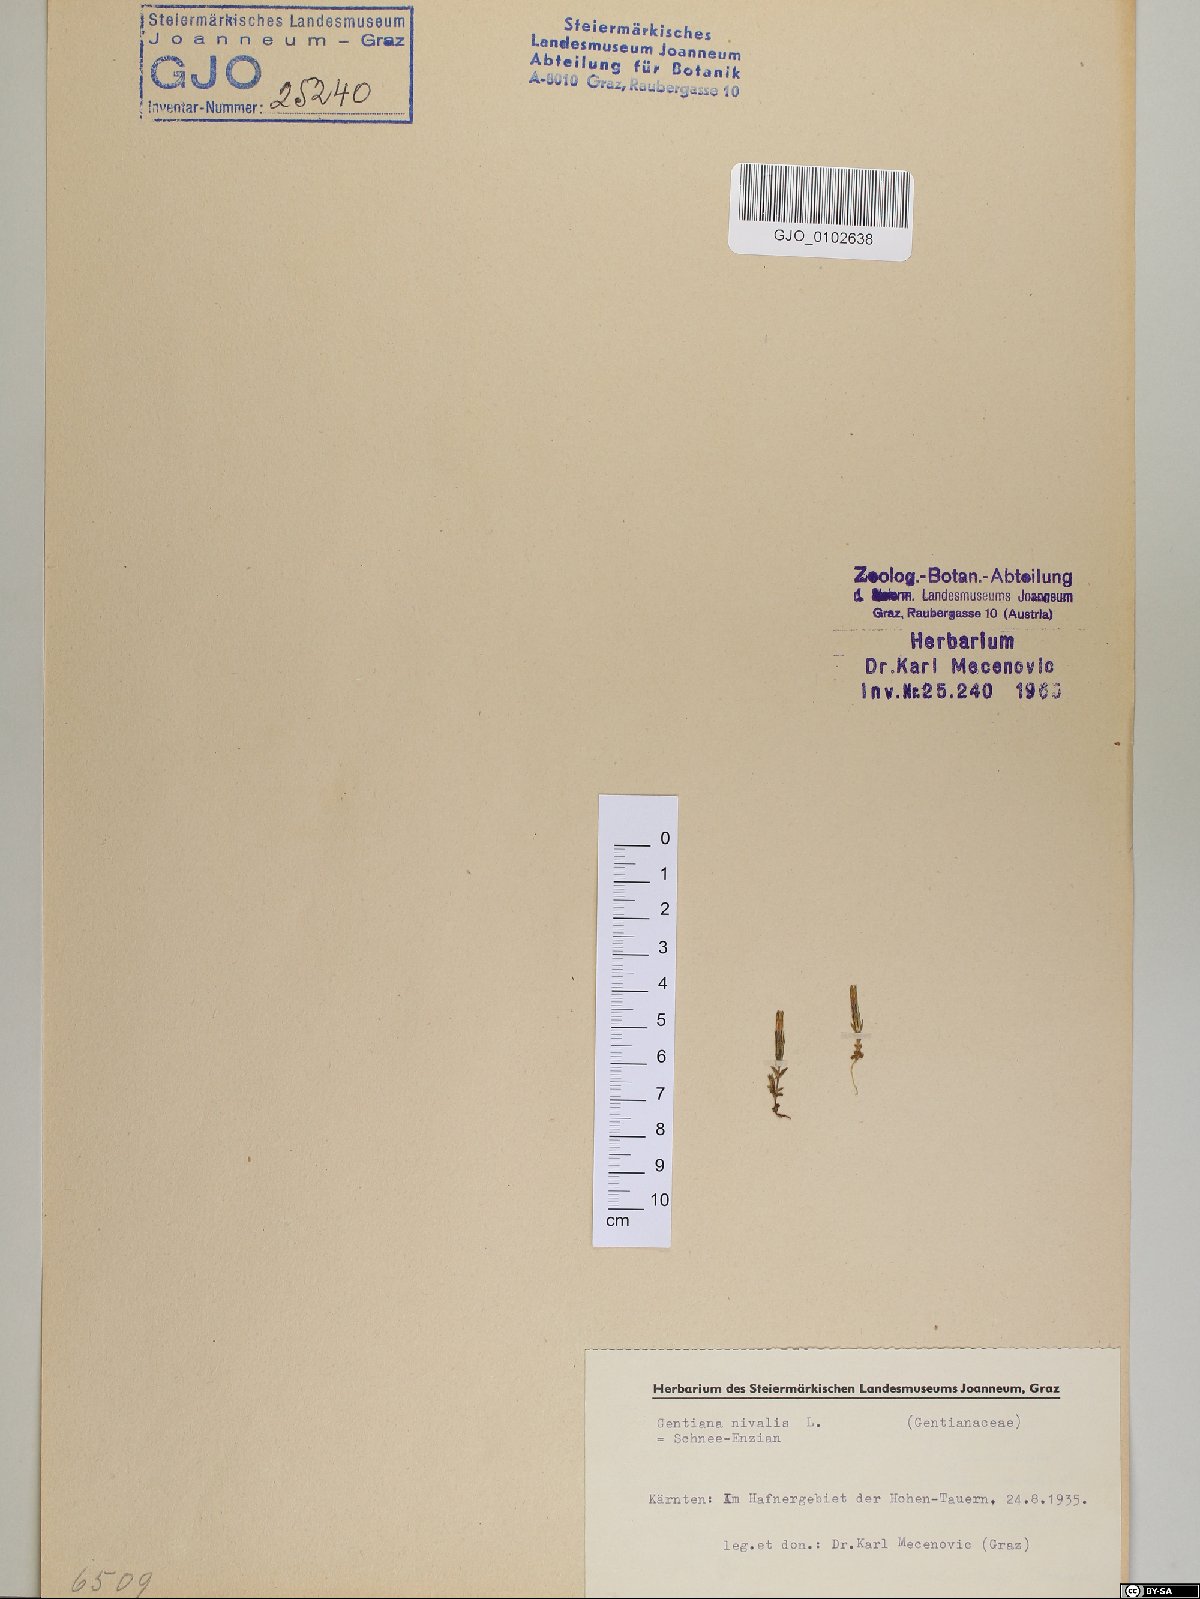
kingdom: Plantae
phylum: Tracheophyta
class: Magnoliopsida
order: Gentianales
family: Gentianaceae
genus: Gentiana
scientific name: Gentiana nivalis
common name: Alpine gentian
